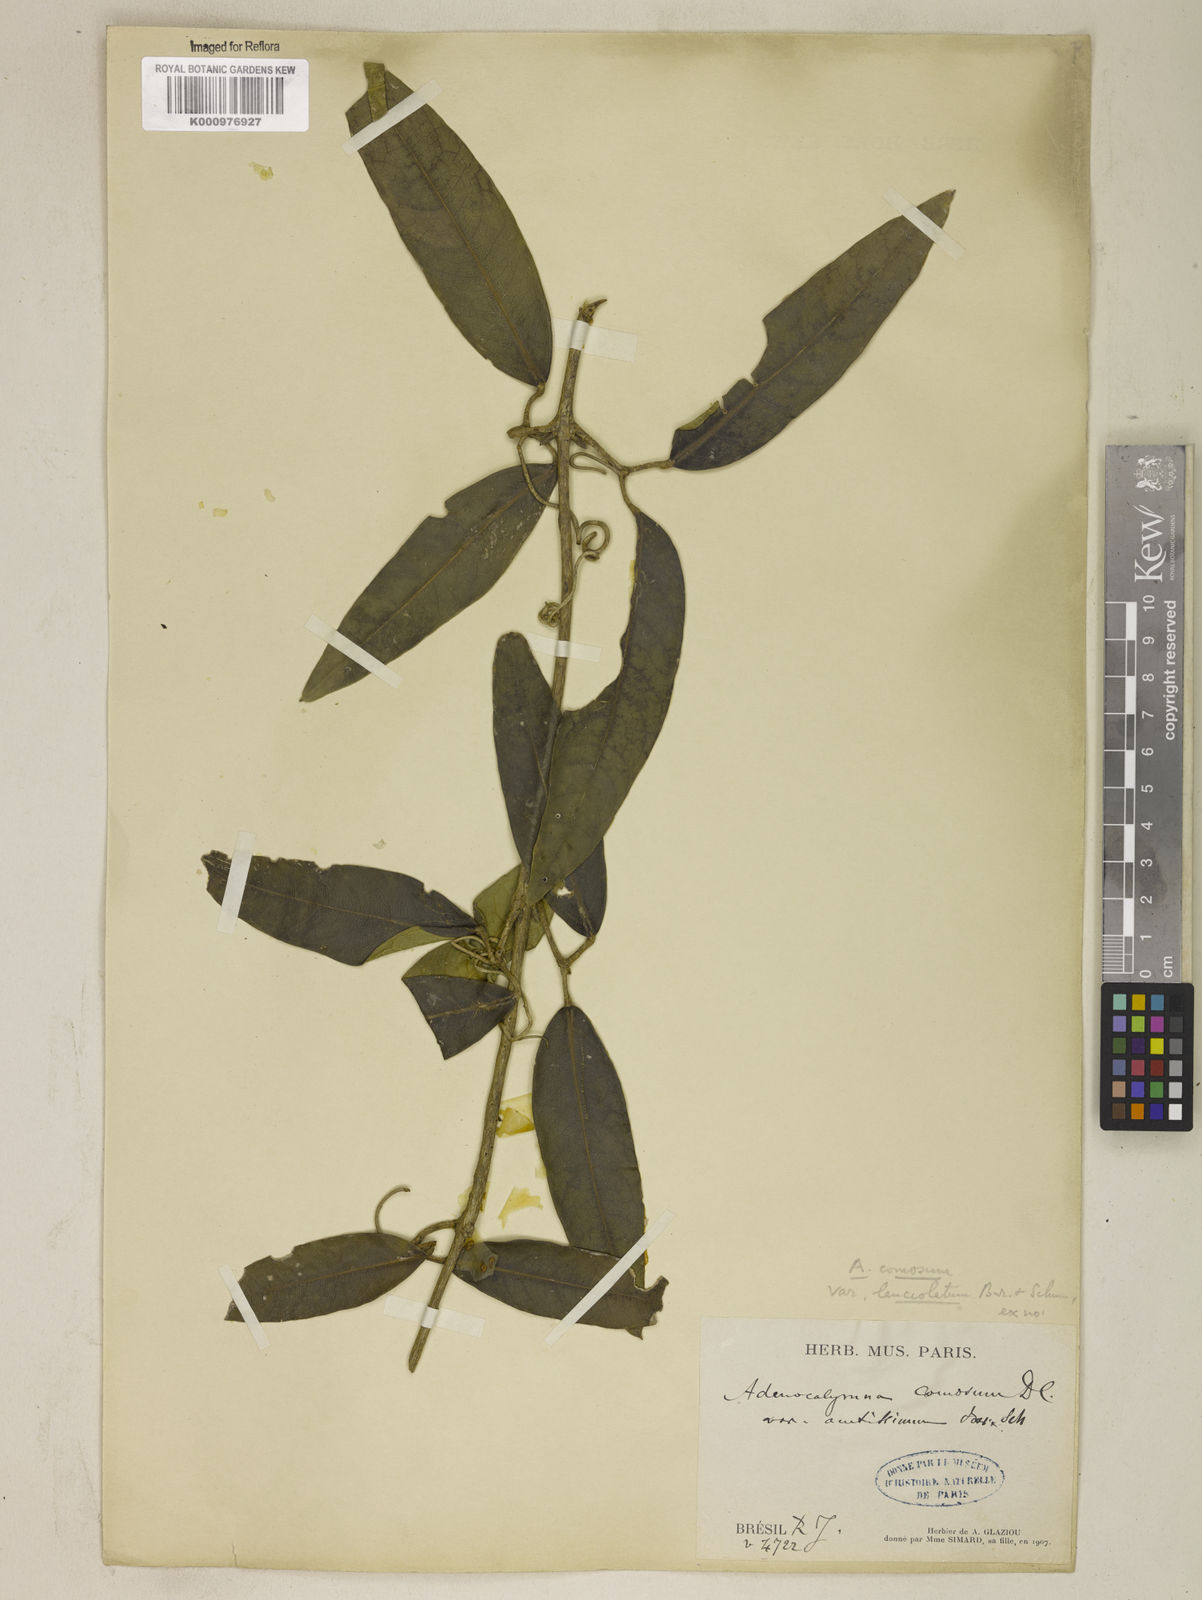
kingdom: Plantae
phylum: Tracheophyta
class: Magnoliopsida
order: Lamiales
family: Bignoniaceae
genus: Adenocalymma
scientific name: Adenocalymma acutissimum
